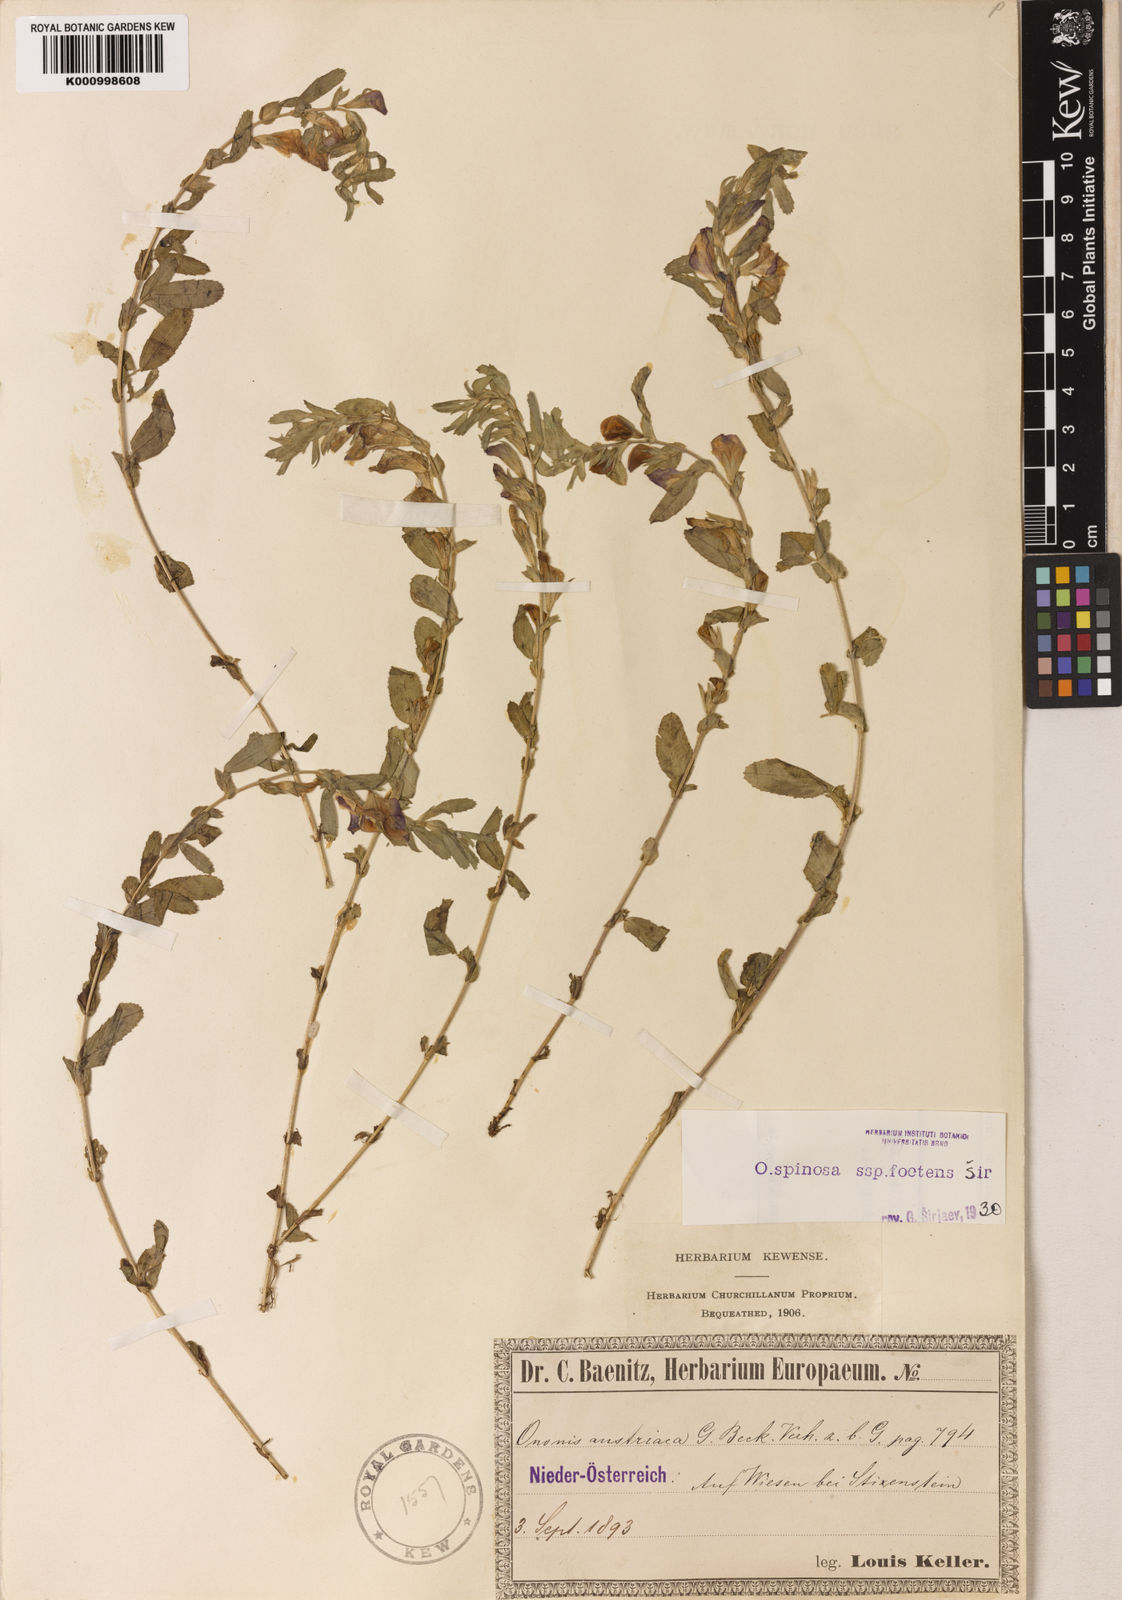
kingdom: Plantae
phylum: Tracheophyta
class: Magnoliopsida
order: Fabales
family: Fabaceae
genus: Ononis
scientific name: Ononis spinosa
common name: Spiny restharrow
